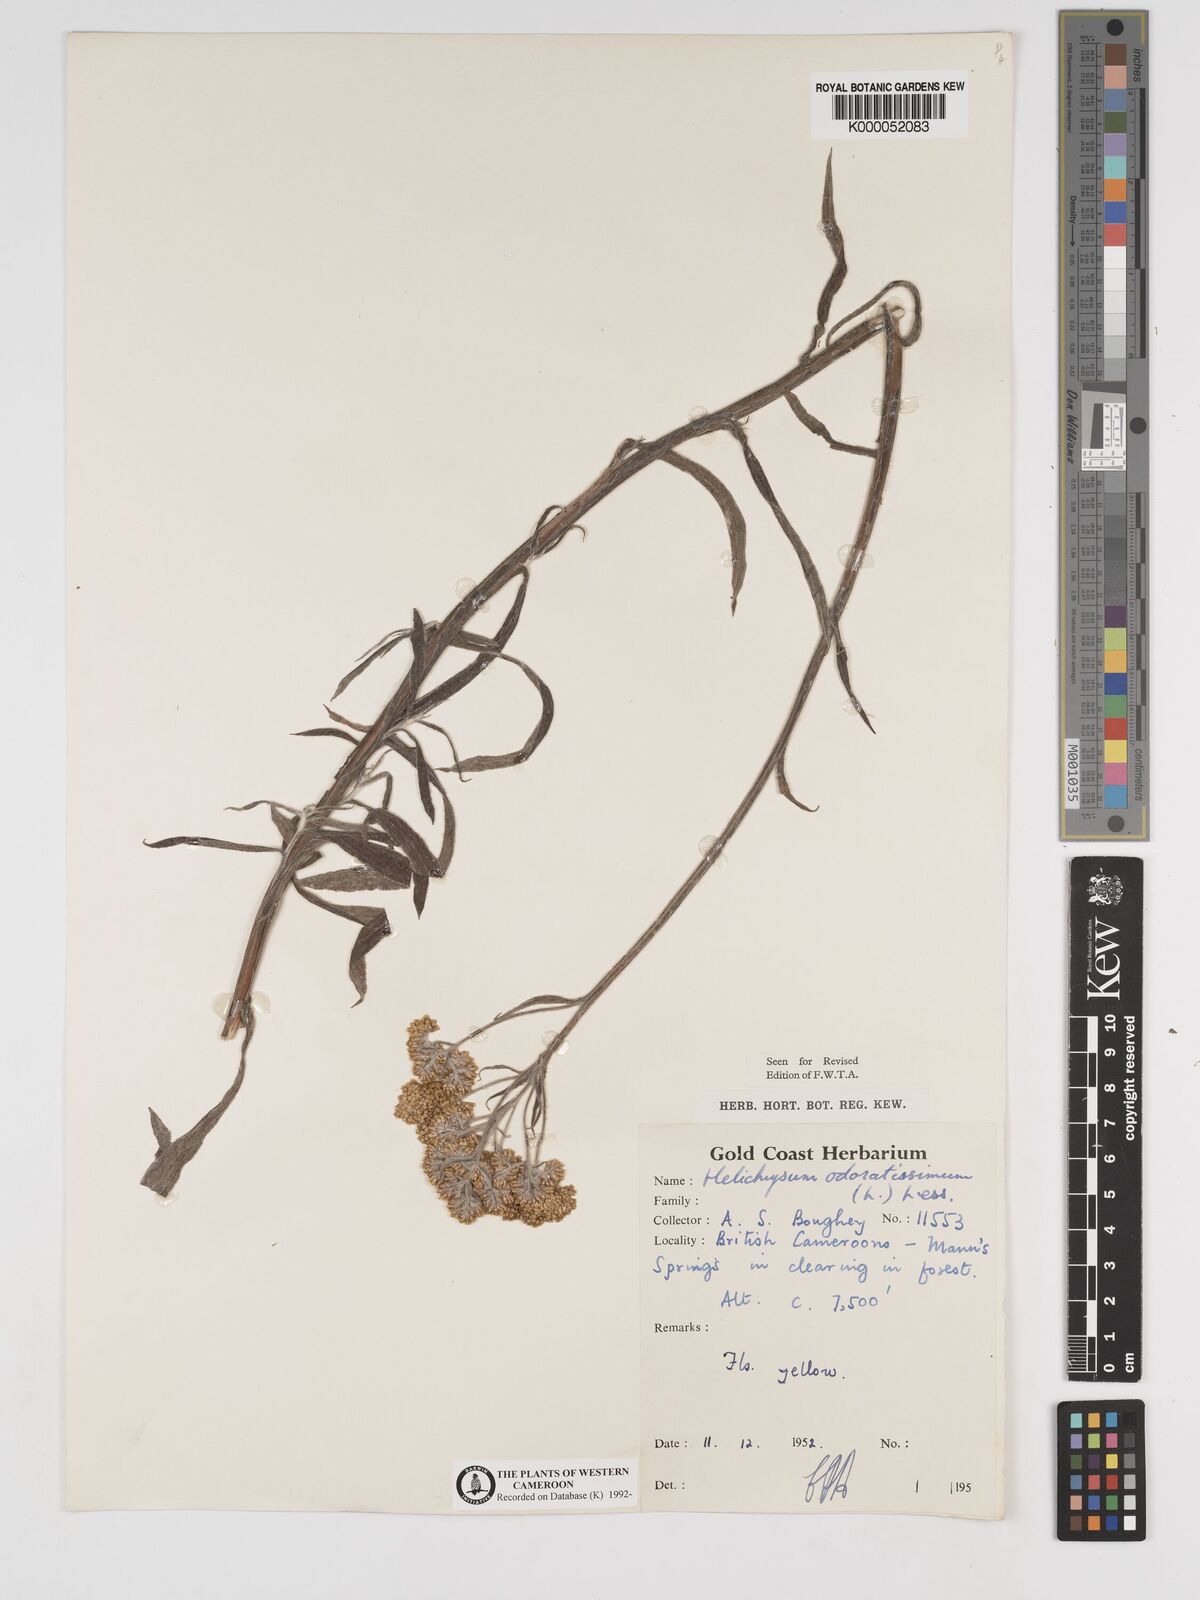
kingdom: Plantae
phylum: Tracheophyta
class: Magnoliopsida
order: Asterales
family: Asteraceae
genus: Helichrysum
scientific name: Helichrysum odoratissimum
